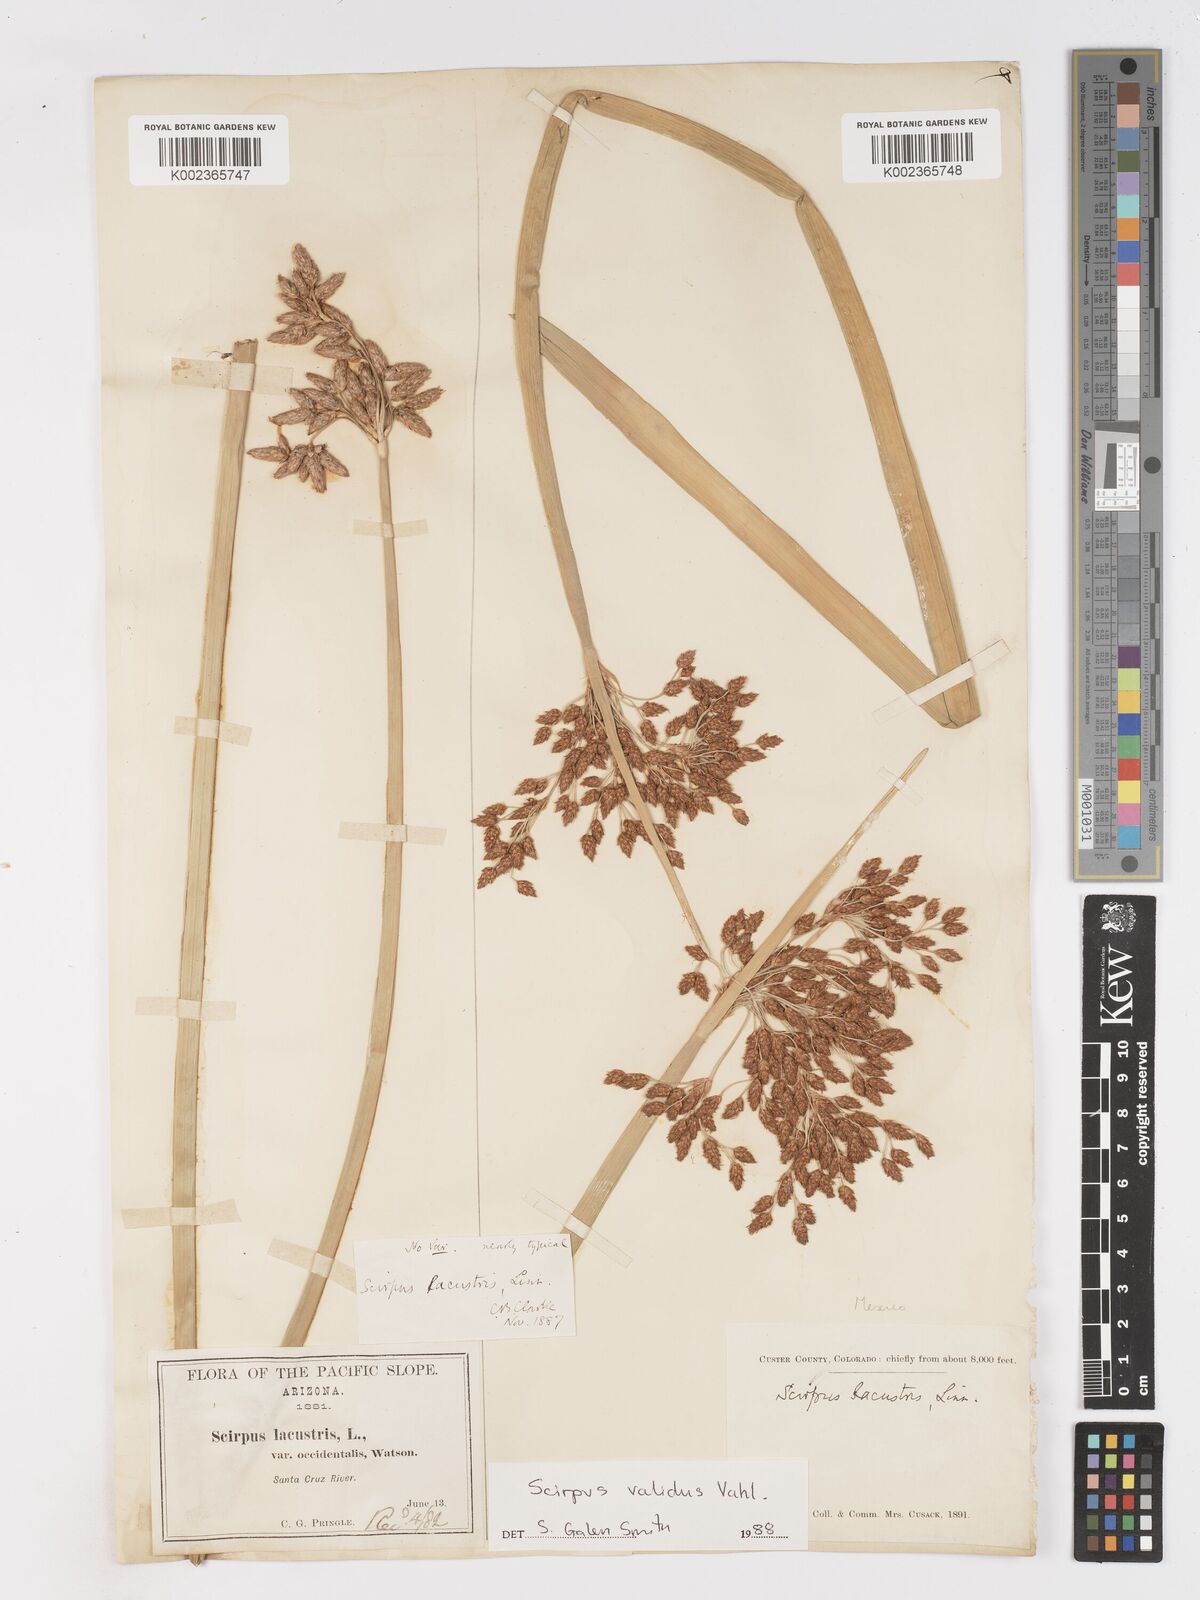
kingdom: Plantae
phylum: Tracheophyta
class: Liliopsida
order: Poales
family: Cyperaceae
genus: Schoenoplectus
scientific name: Schoenoplectus
